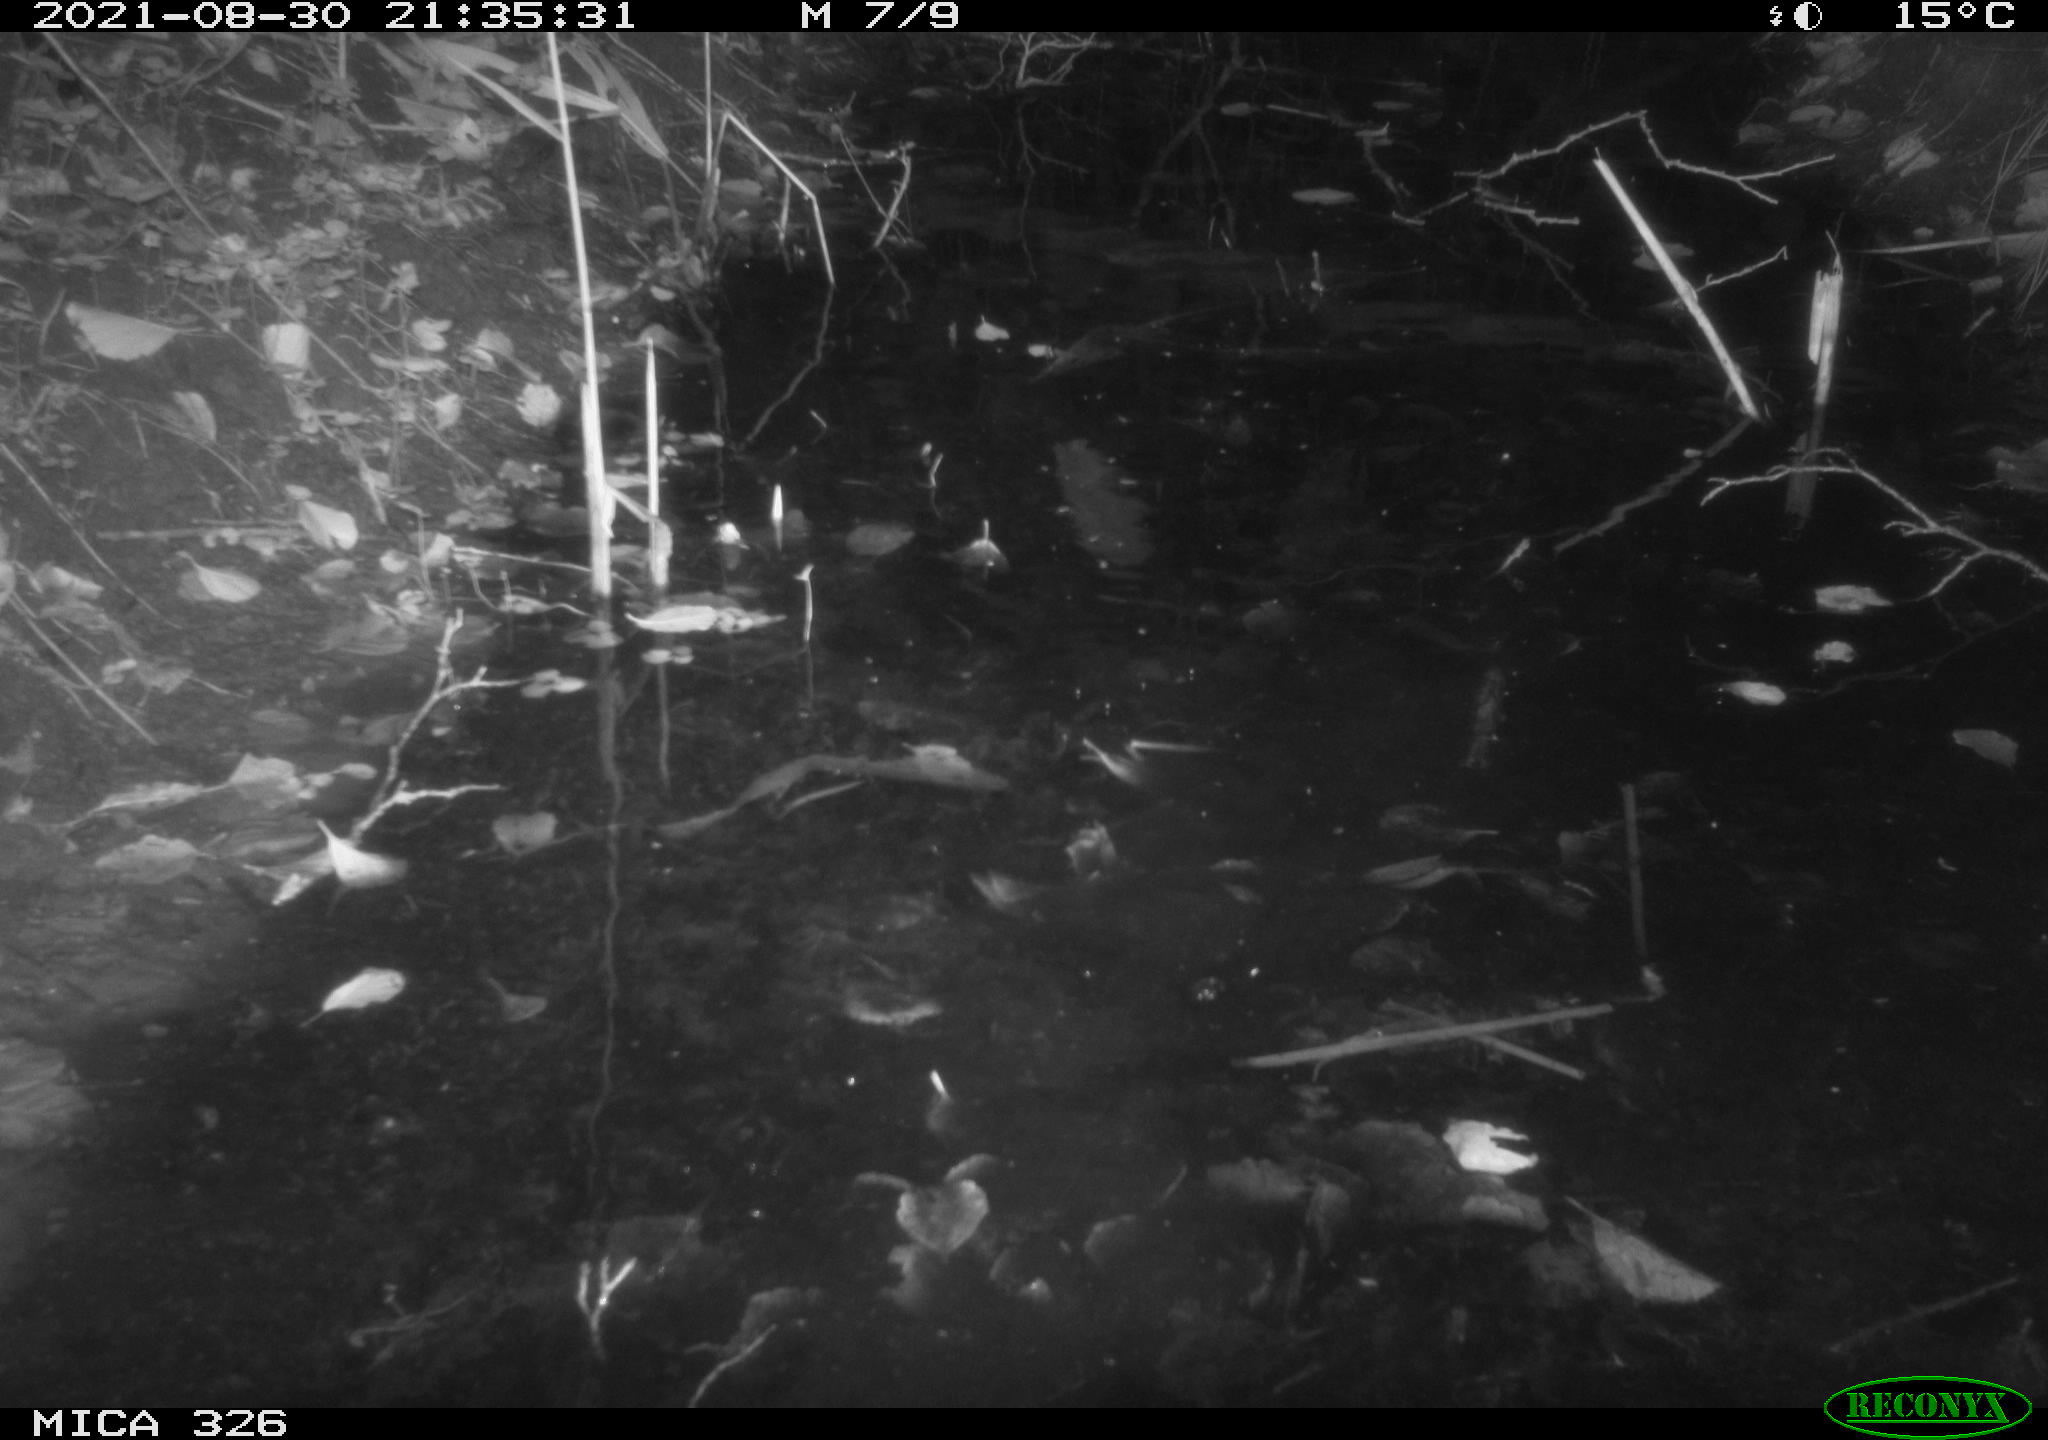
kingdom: Animalia
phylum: Chordata
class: Mammalia
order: Carnivora
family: Mustelidae
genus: Lutra
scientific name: Lutra lutra
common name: European otter
